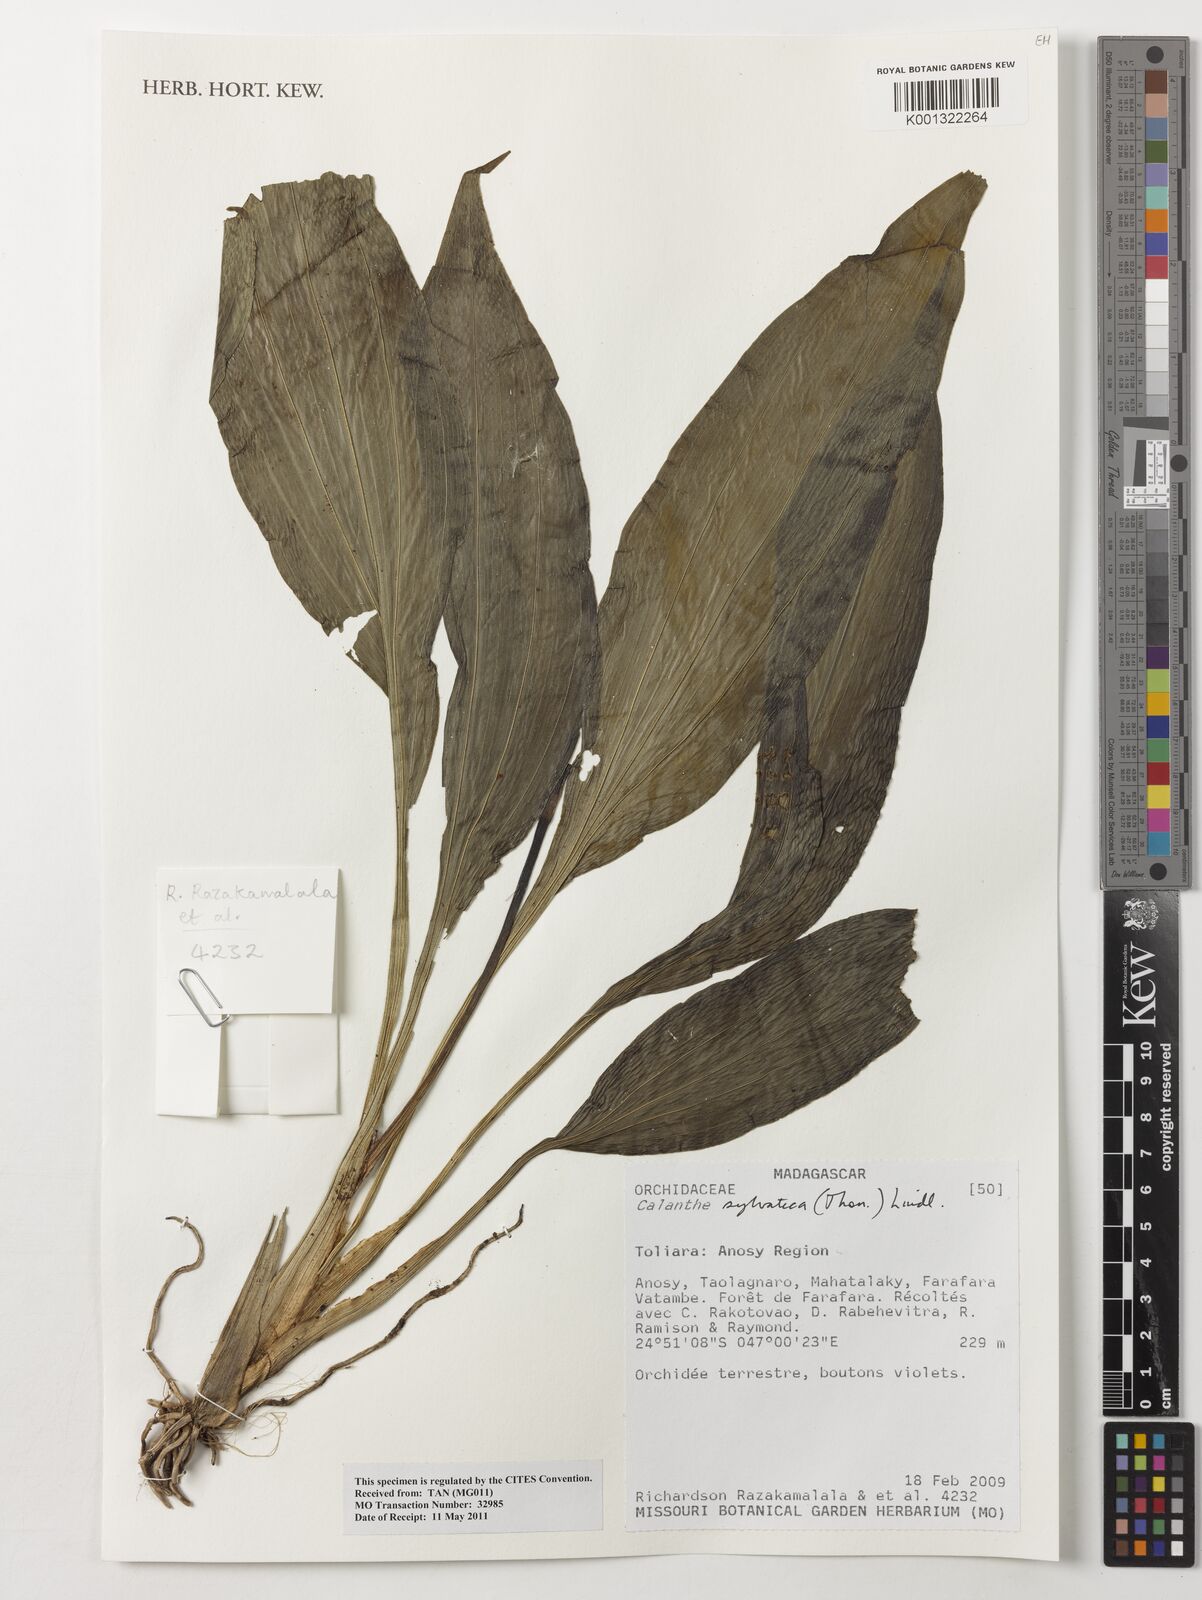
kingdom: Plantae
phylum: Tracheophyta
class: Liliopsida
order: Asparagales
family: Orchidaceae
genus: Calanthe
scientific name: Calanthe sylvatica
